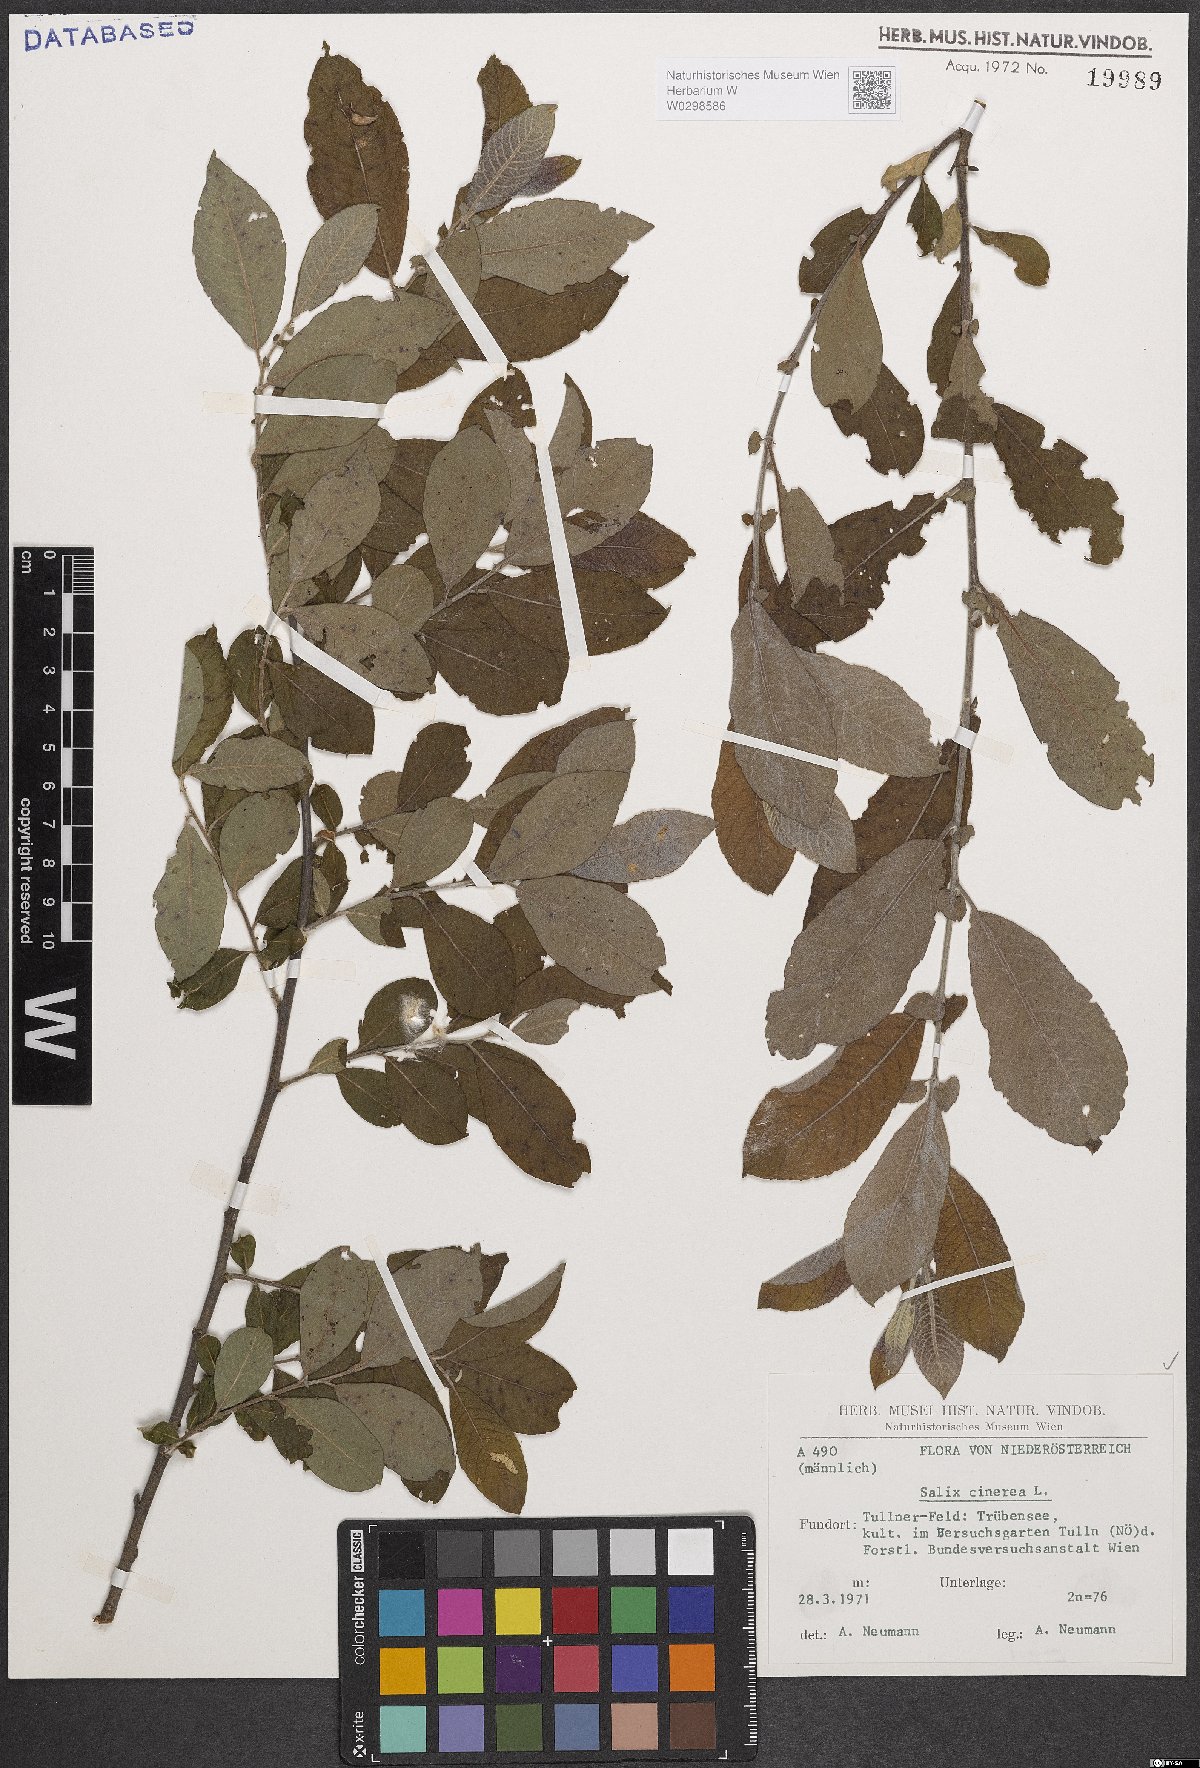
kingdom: Plantae
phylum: Tracheophyta
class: Magnoliopsida
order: Malpighiales
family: Salicaceae
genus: Salix
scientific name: Salix cinerea
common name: Common sallow
